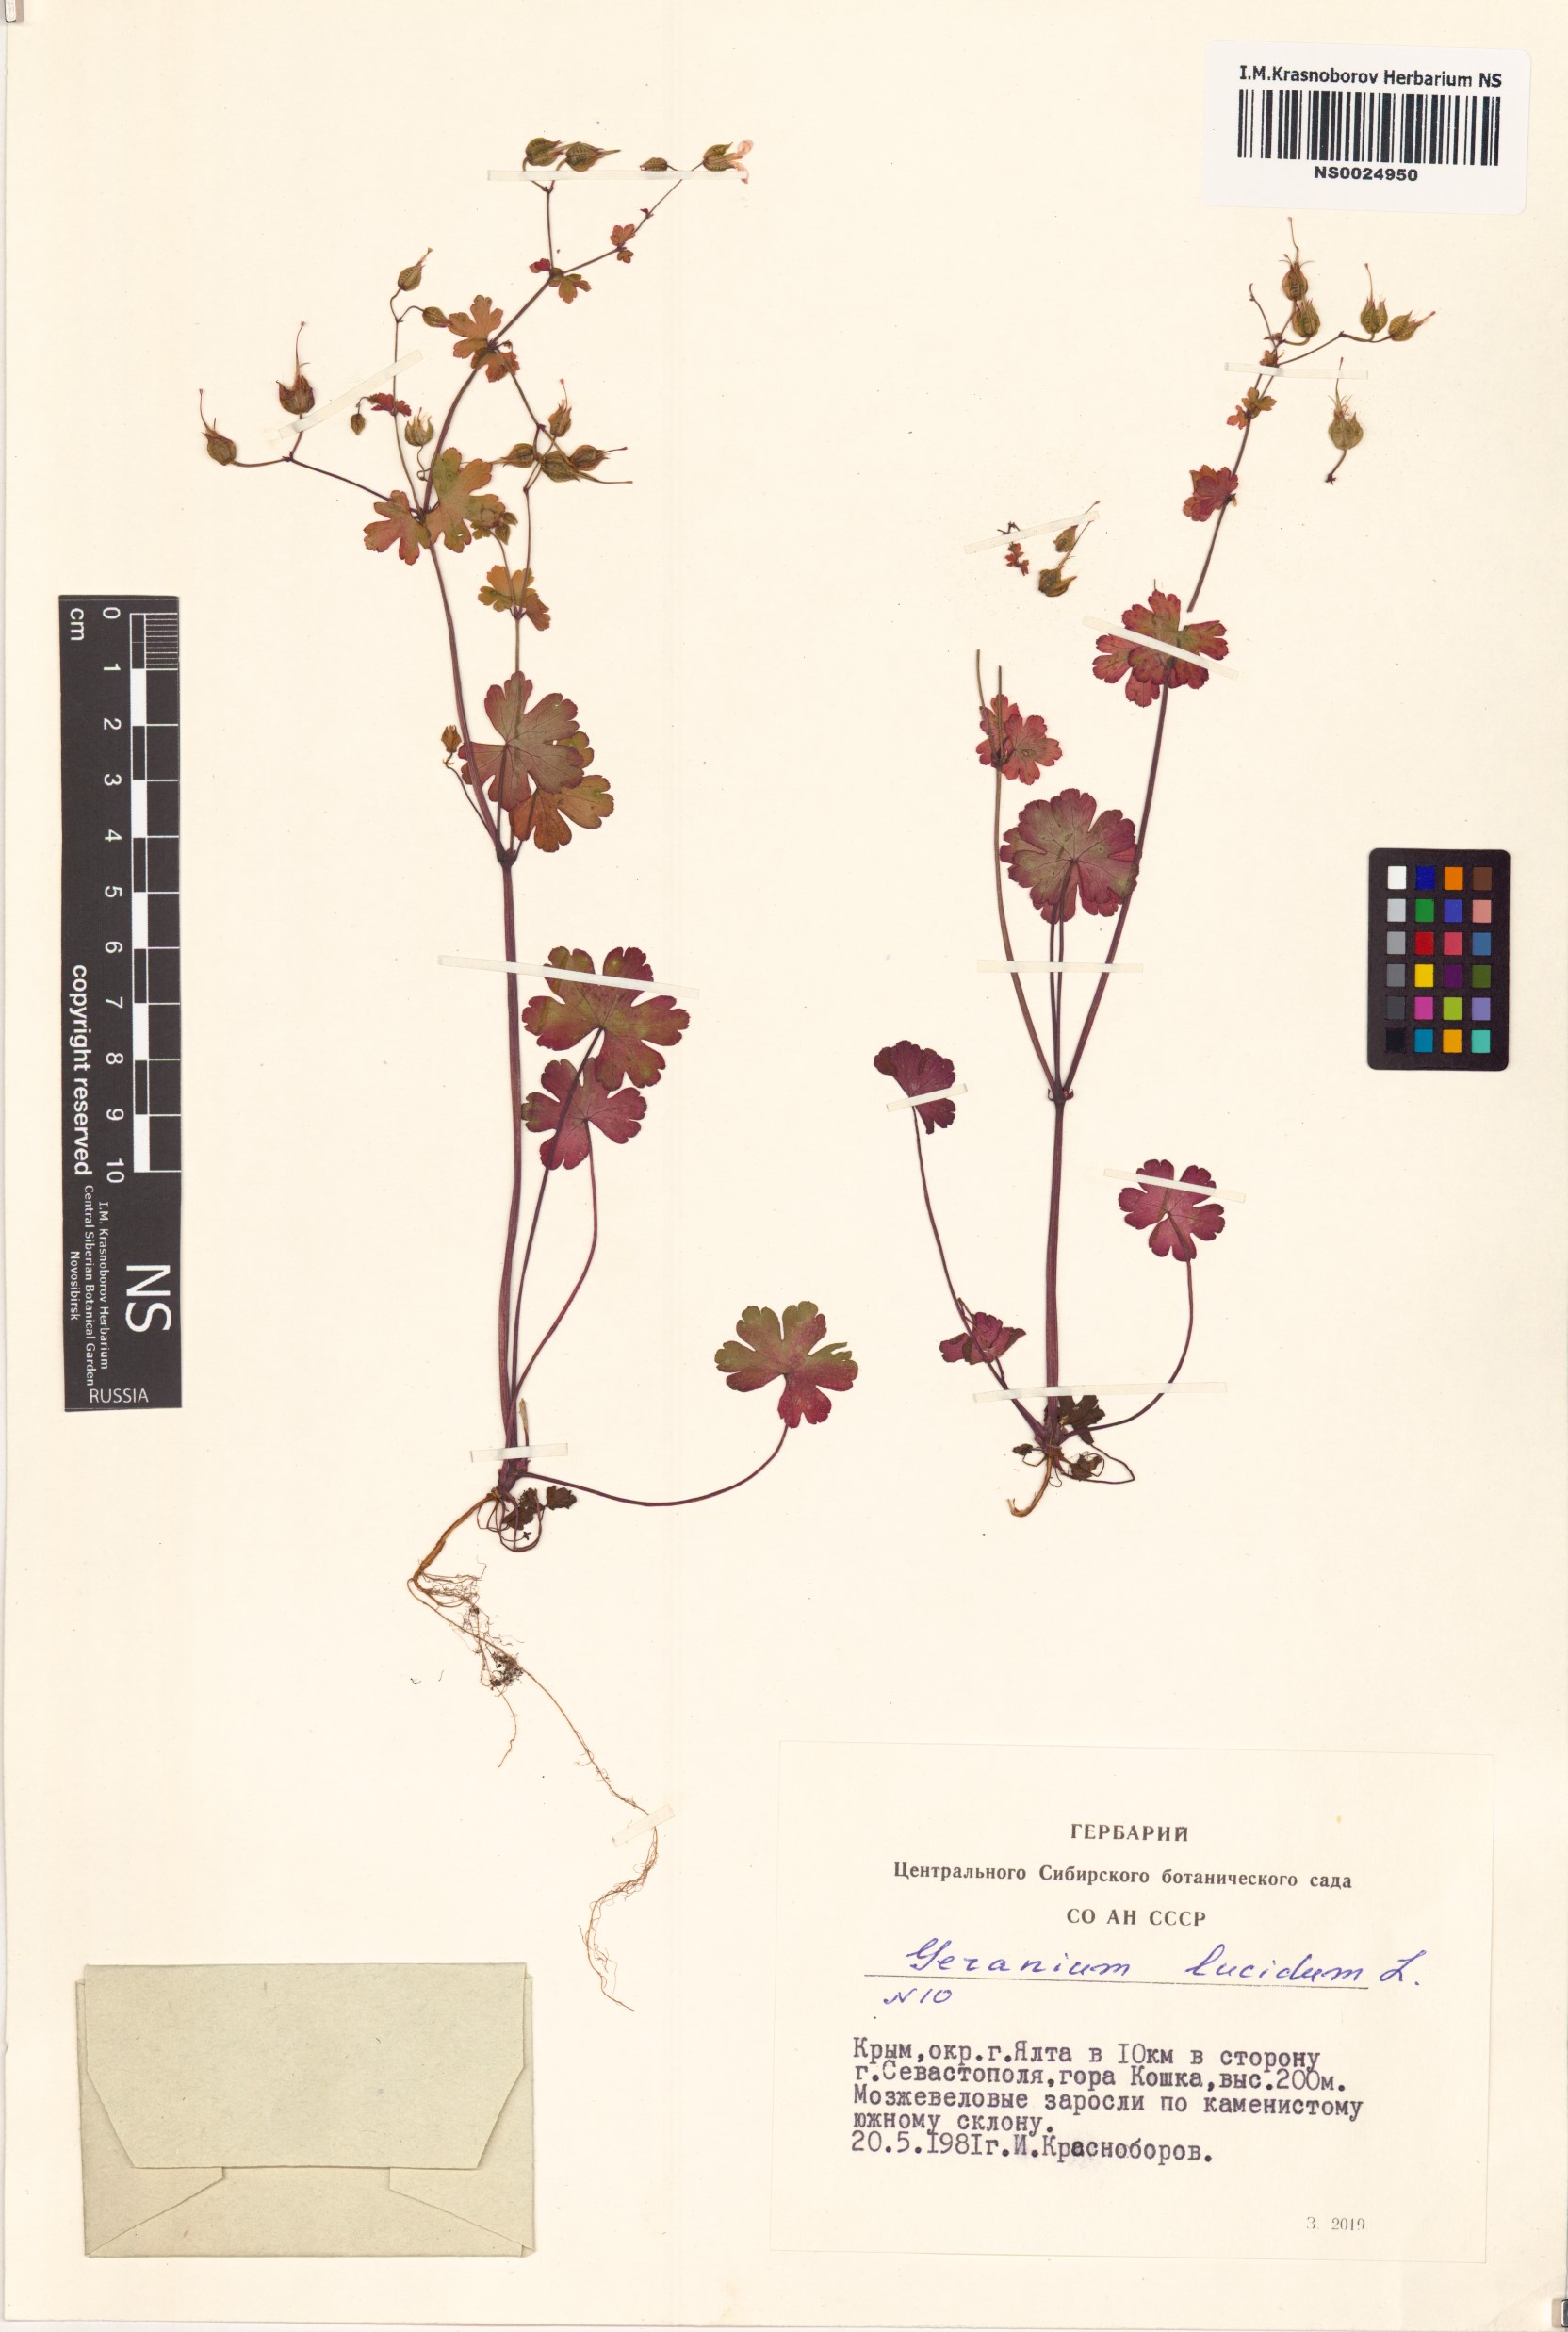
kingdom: Plantae
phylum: Tracheophyta
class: Magnoliopsida
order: Geraniales
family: Geraniaceae
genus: Geranium
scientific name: Geranium lucidum
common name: Shining crane's-bill
